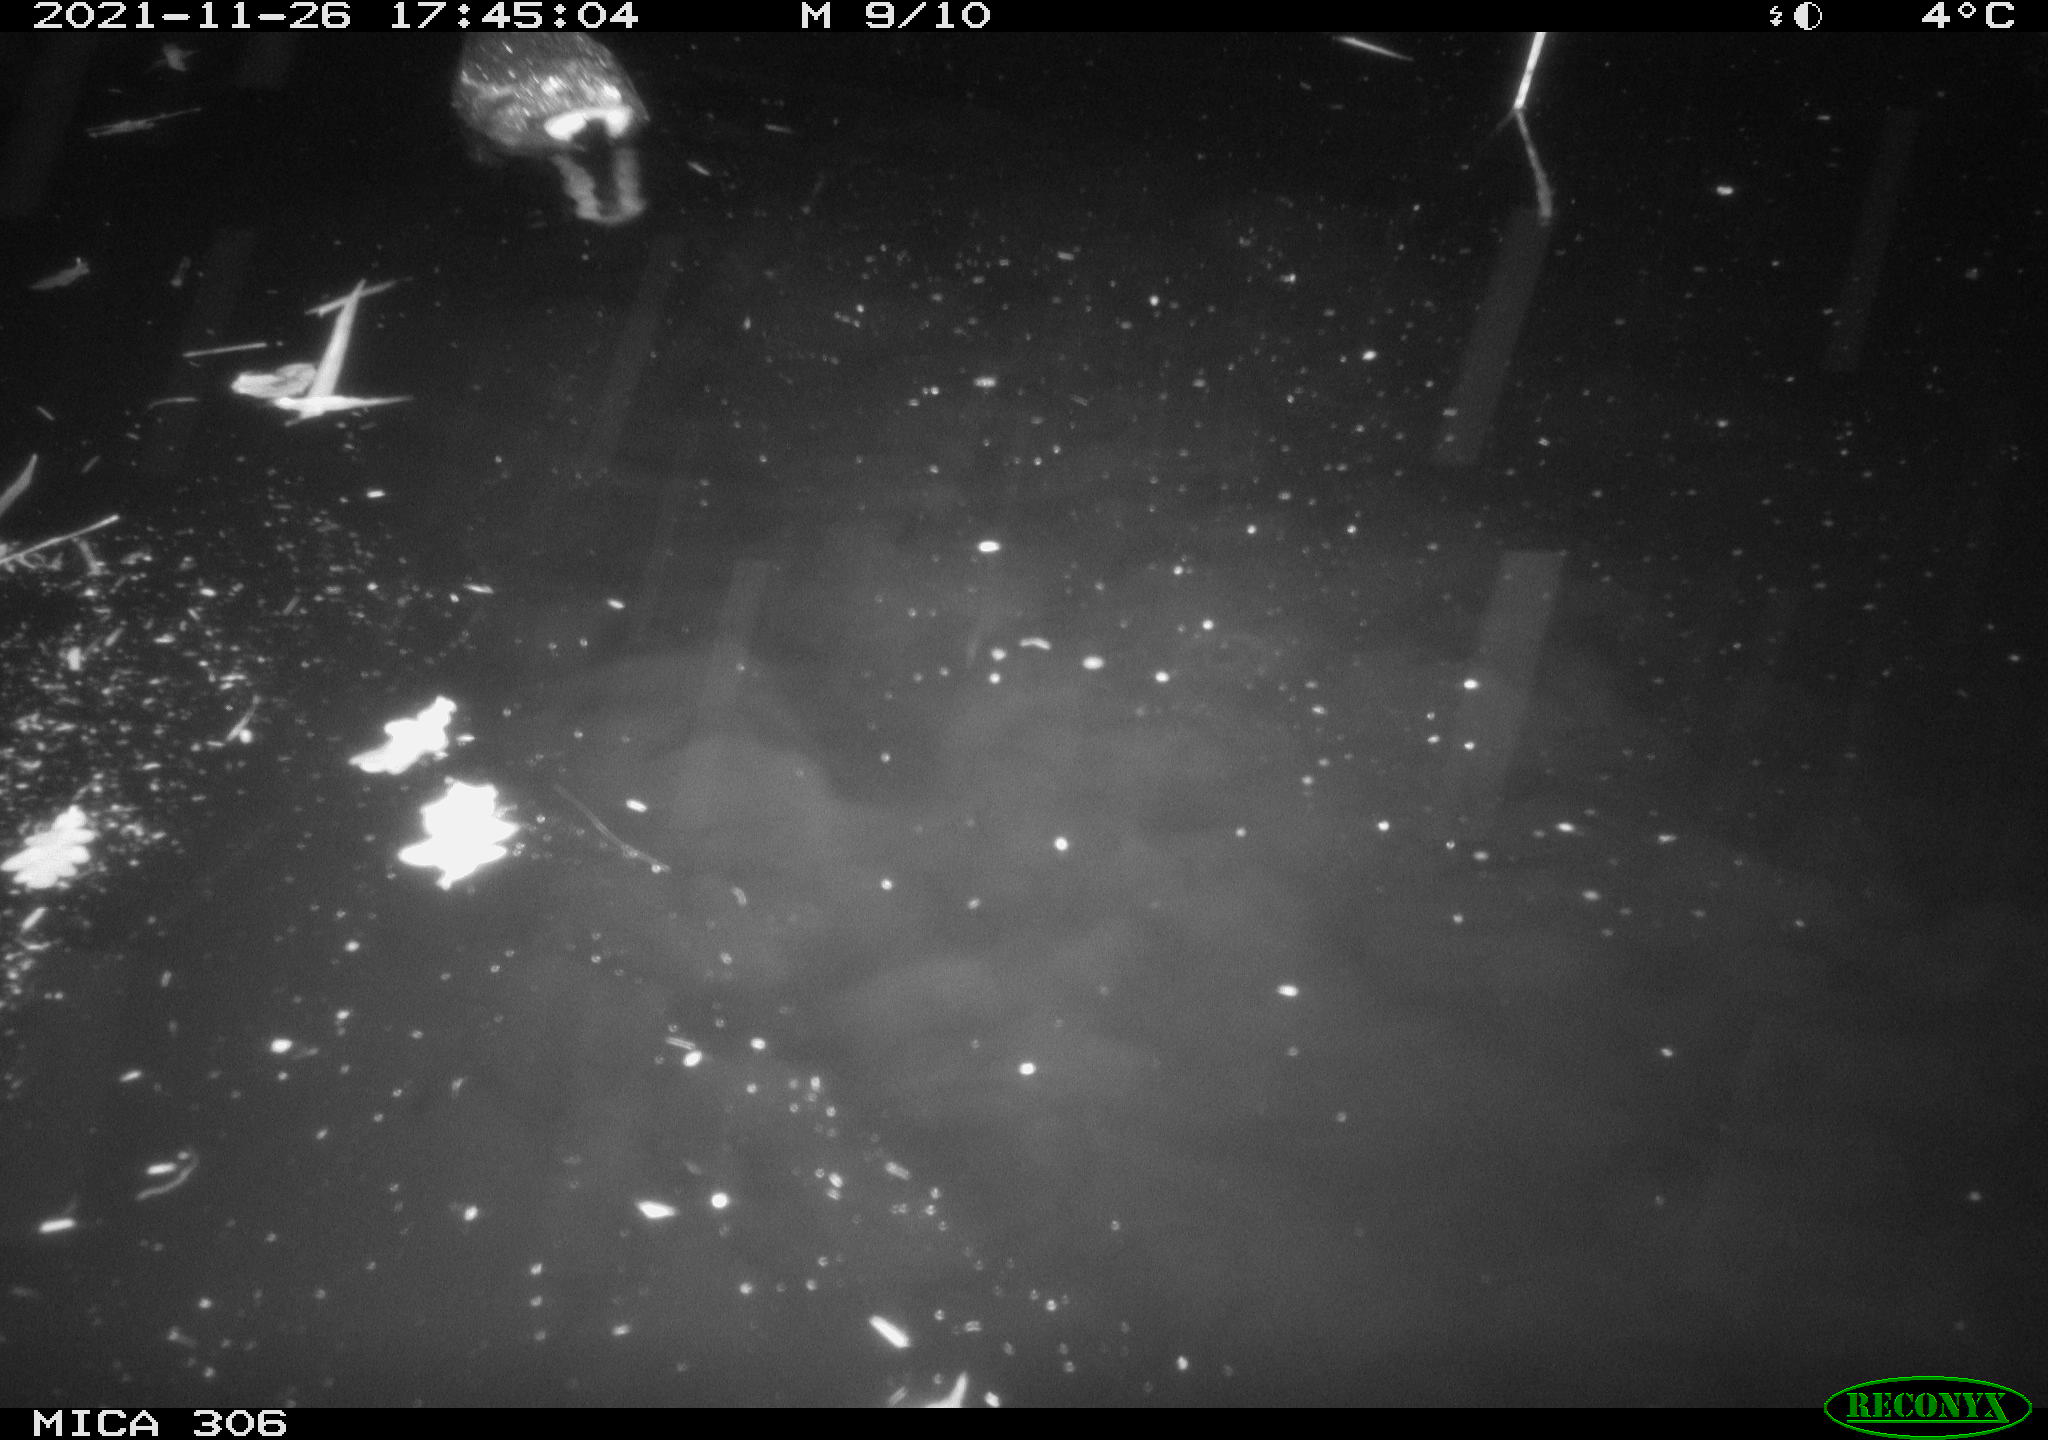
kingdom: Animalia
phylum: Chordata
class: Aves
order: Gruiformes
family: Rallidae
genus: Fulica
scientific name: Fulica atra
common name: Eurasian coot
